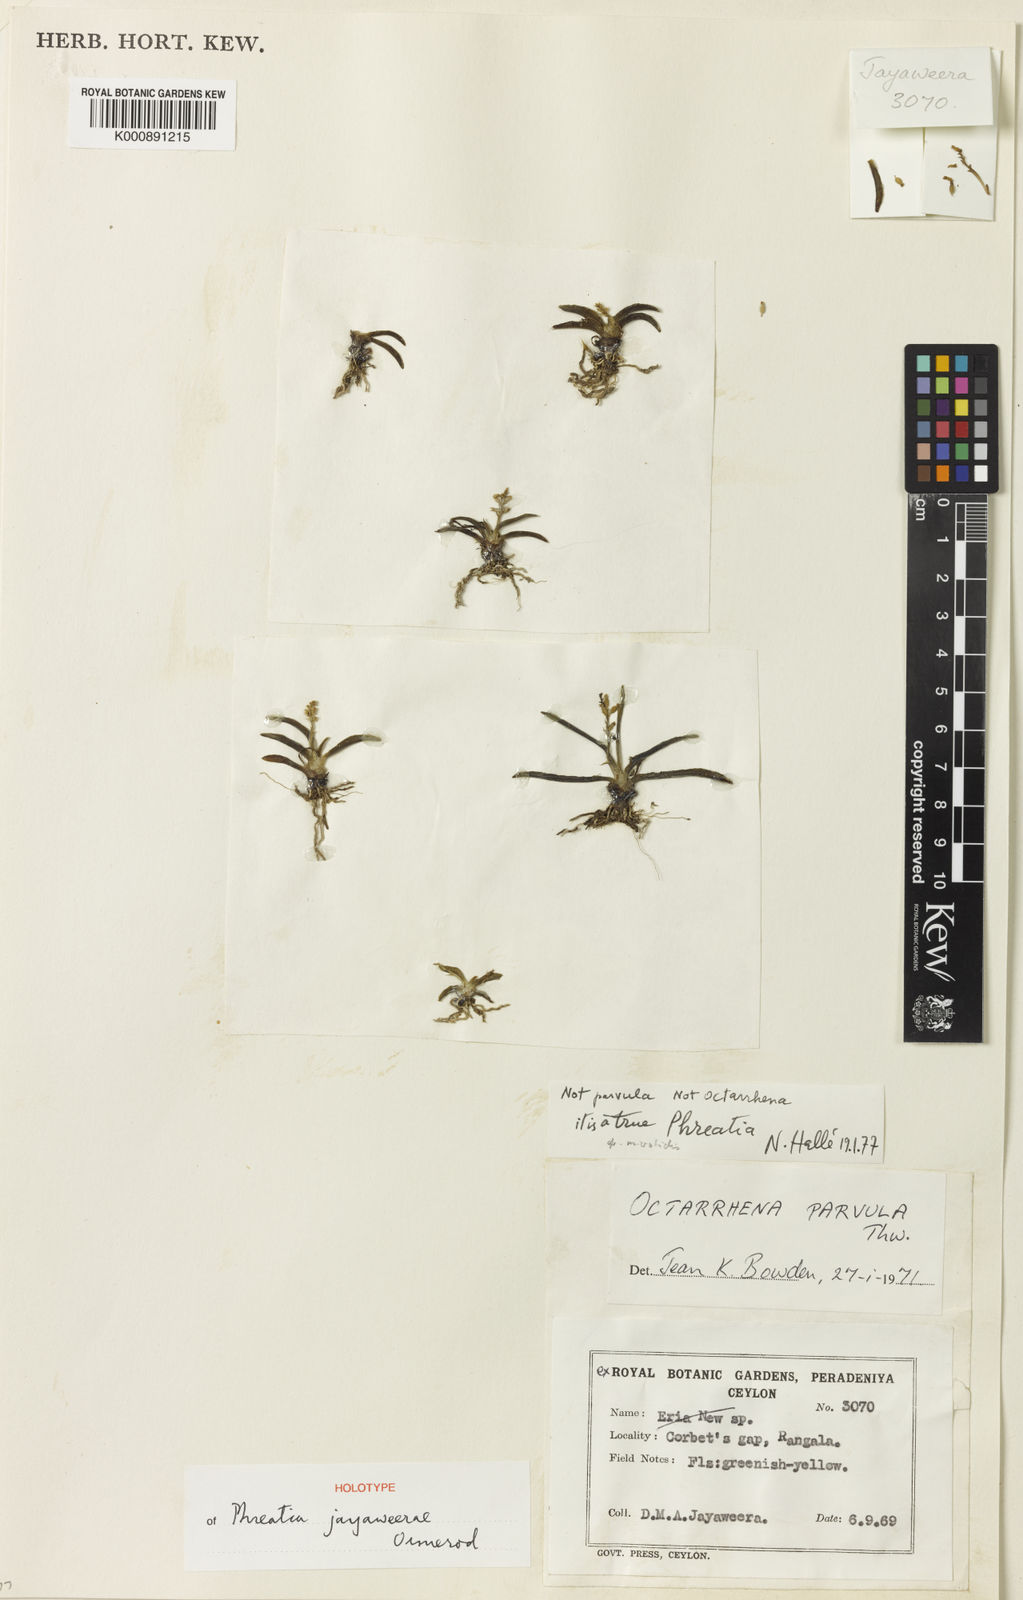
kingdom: Plantae
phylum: Tracheophyta
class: Liliopsida
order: Asparagales
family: Orchidaceae
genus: Phreatia
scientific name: Phreatia jayaweerae
